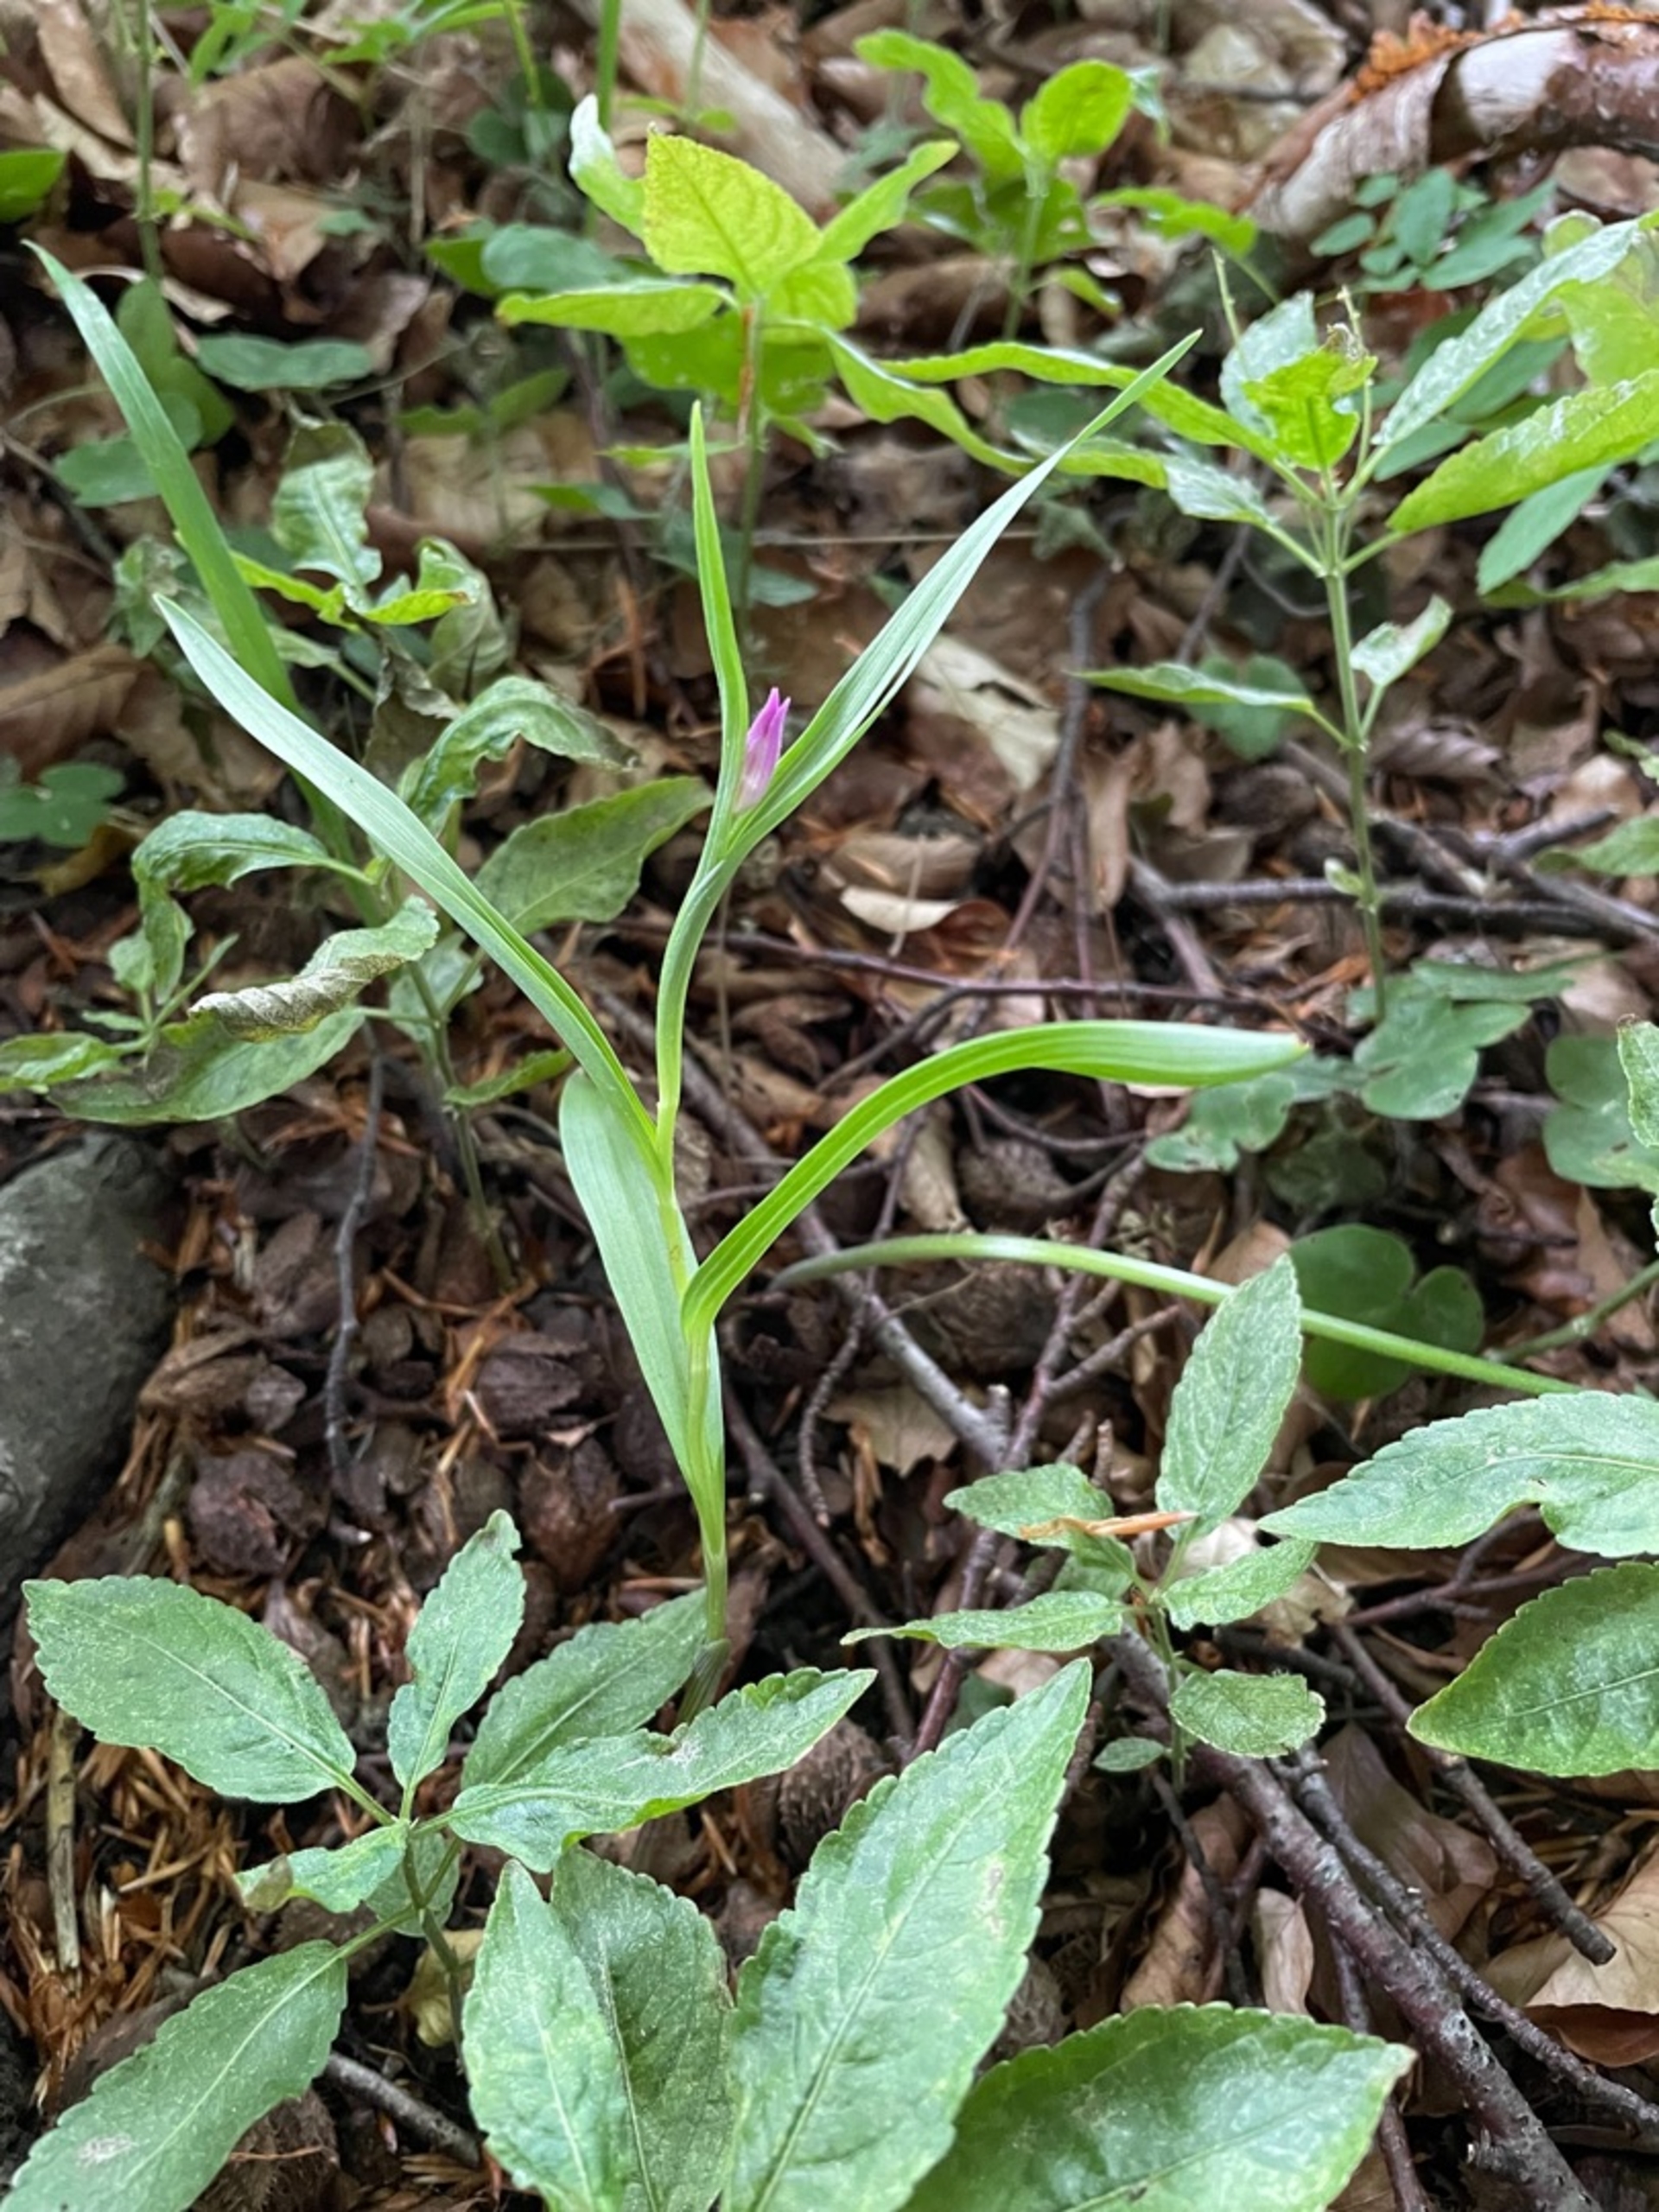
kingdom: Plantae
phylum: Tracheophyta
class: Liliopsida
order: Asparagales
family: Orchidaceae
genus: Cephalanthera
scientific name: Cephalanthera rubra
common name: Rød skovlilje
